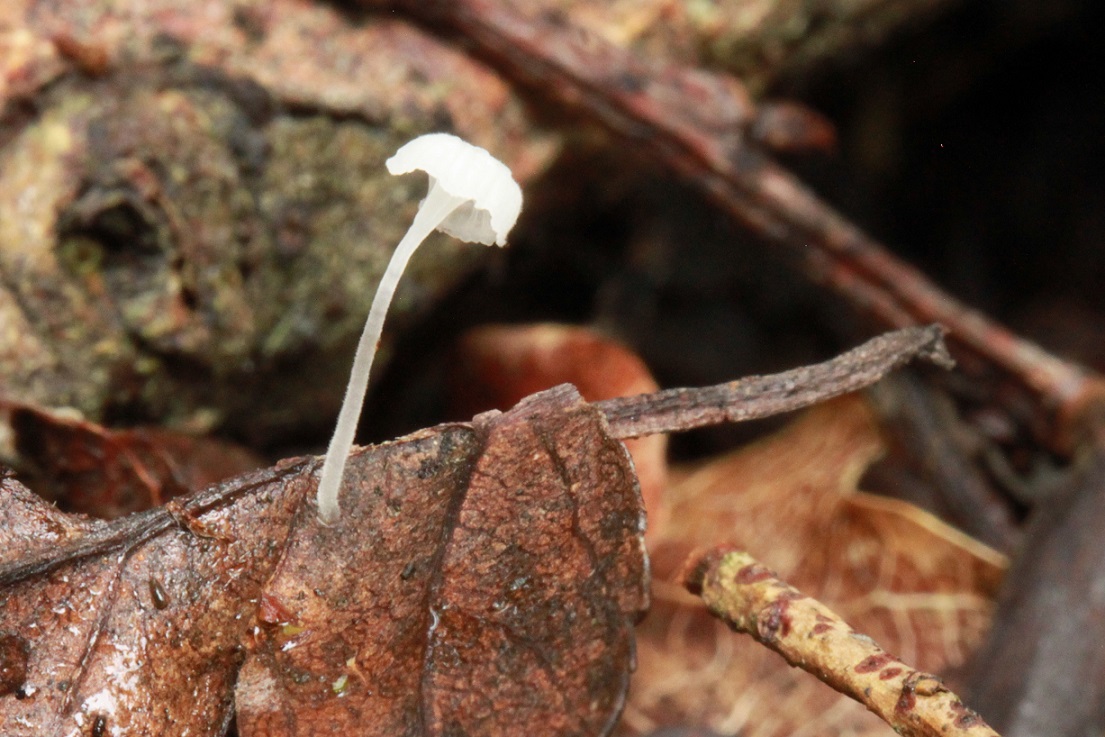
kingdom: Fungi
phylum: Basidiomycota
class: Agaricomycetes
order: Agaricales
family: Mycenaceae
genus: Hemimycena
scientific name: Hemimycena hirsuta
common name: håret huesvamp
